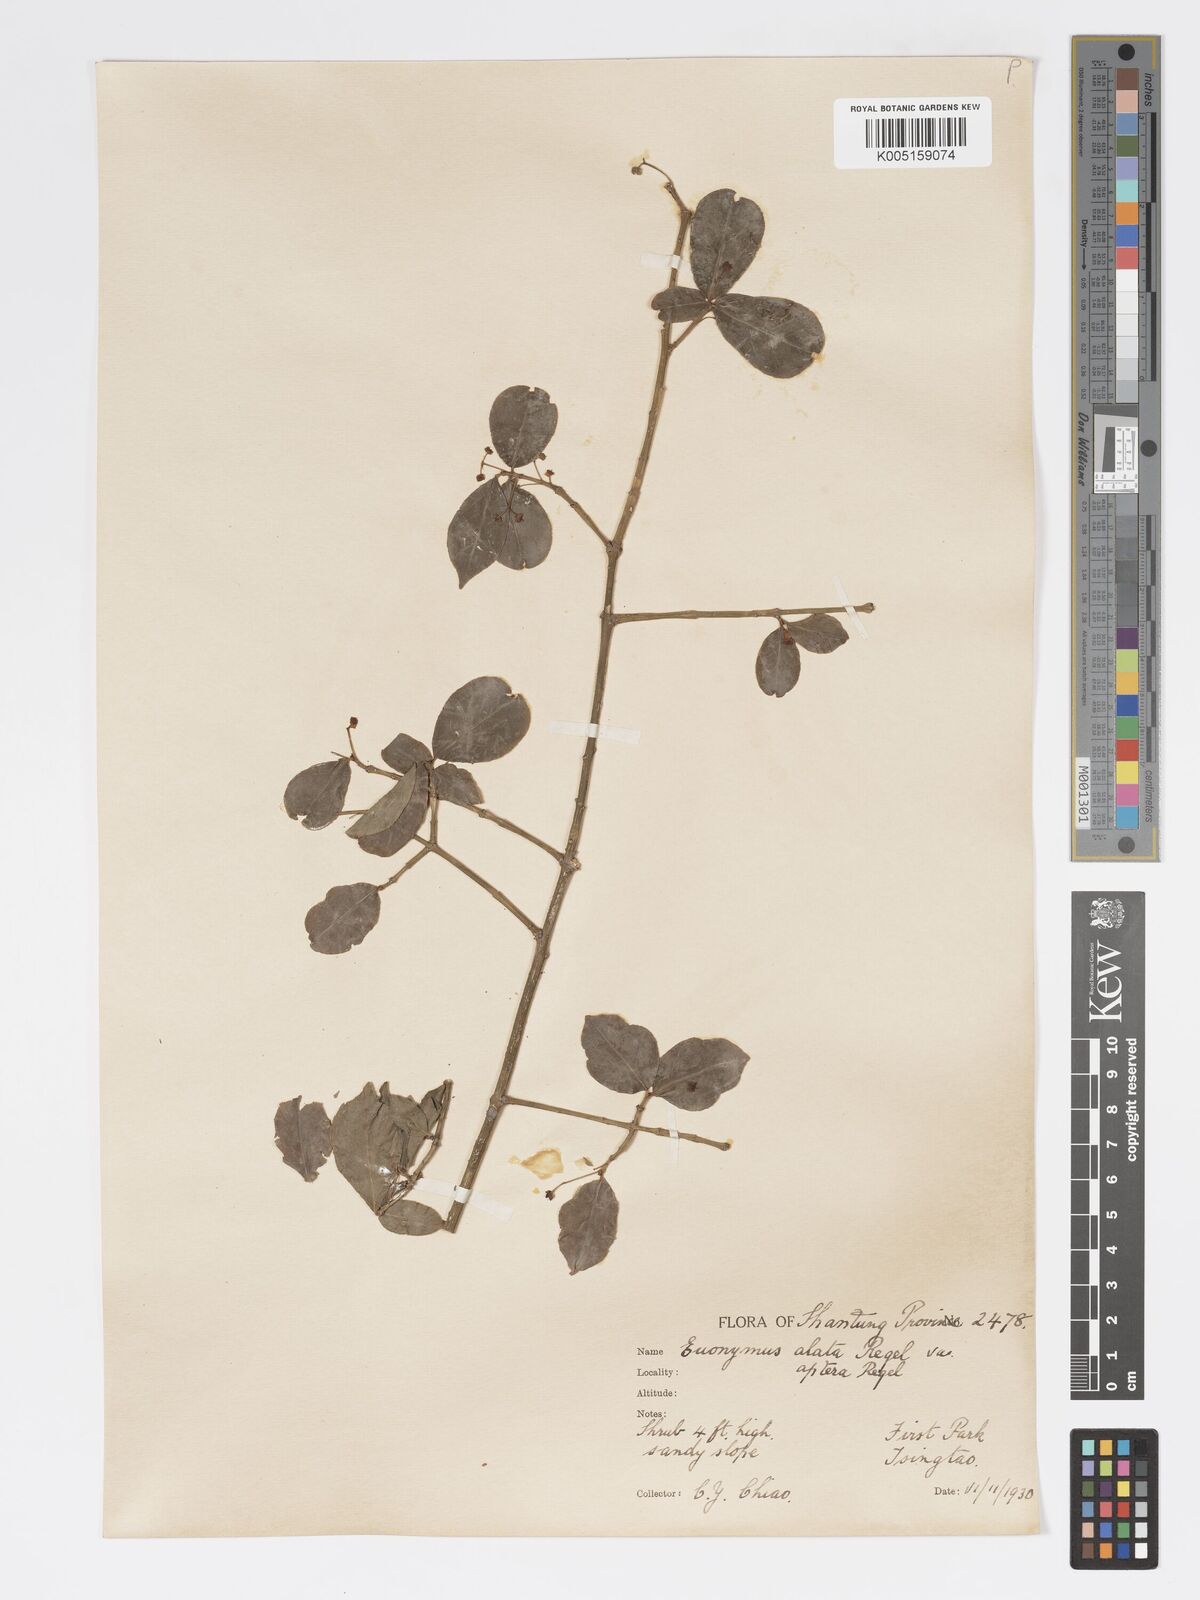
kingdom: Plantae
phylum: Tracheophyta
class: Magnoliopsida
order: Celastrales
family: Celastraceae
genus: Euonymus
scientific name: Euonymus
